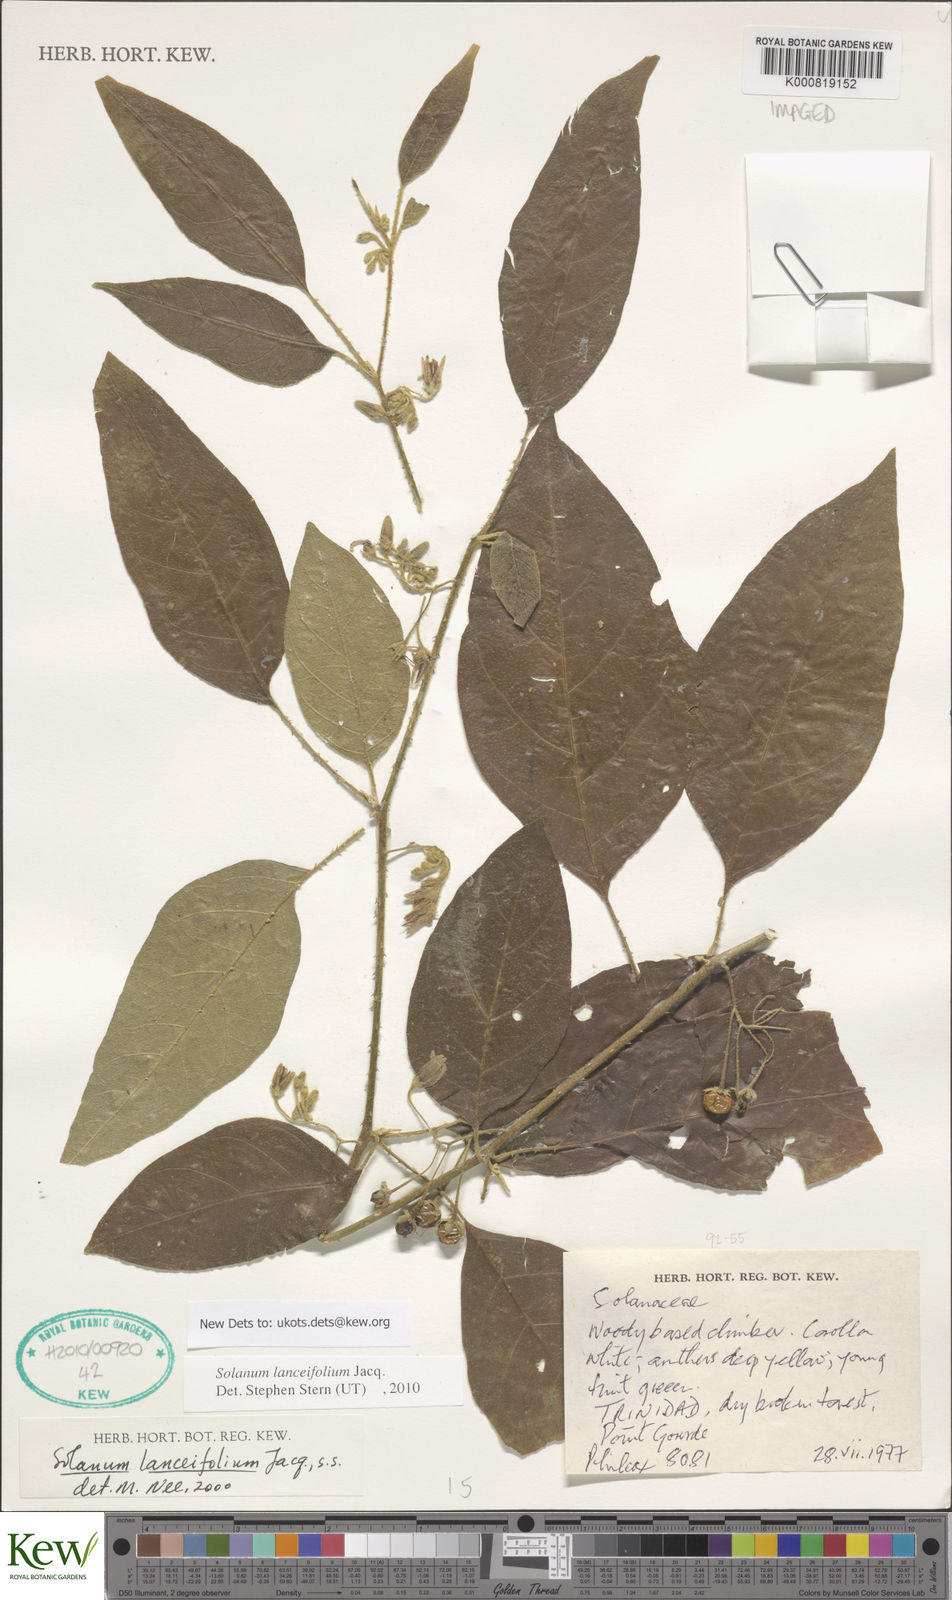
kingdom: Plantae
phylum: Tracheophyta
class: Magnoliopsida
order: Solanales
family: Solanaceae
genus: Solanum
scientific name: Solanum lanceifolium
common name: Lanceleaf nightshade
